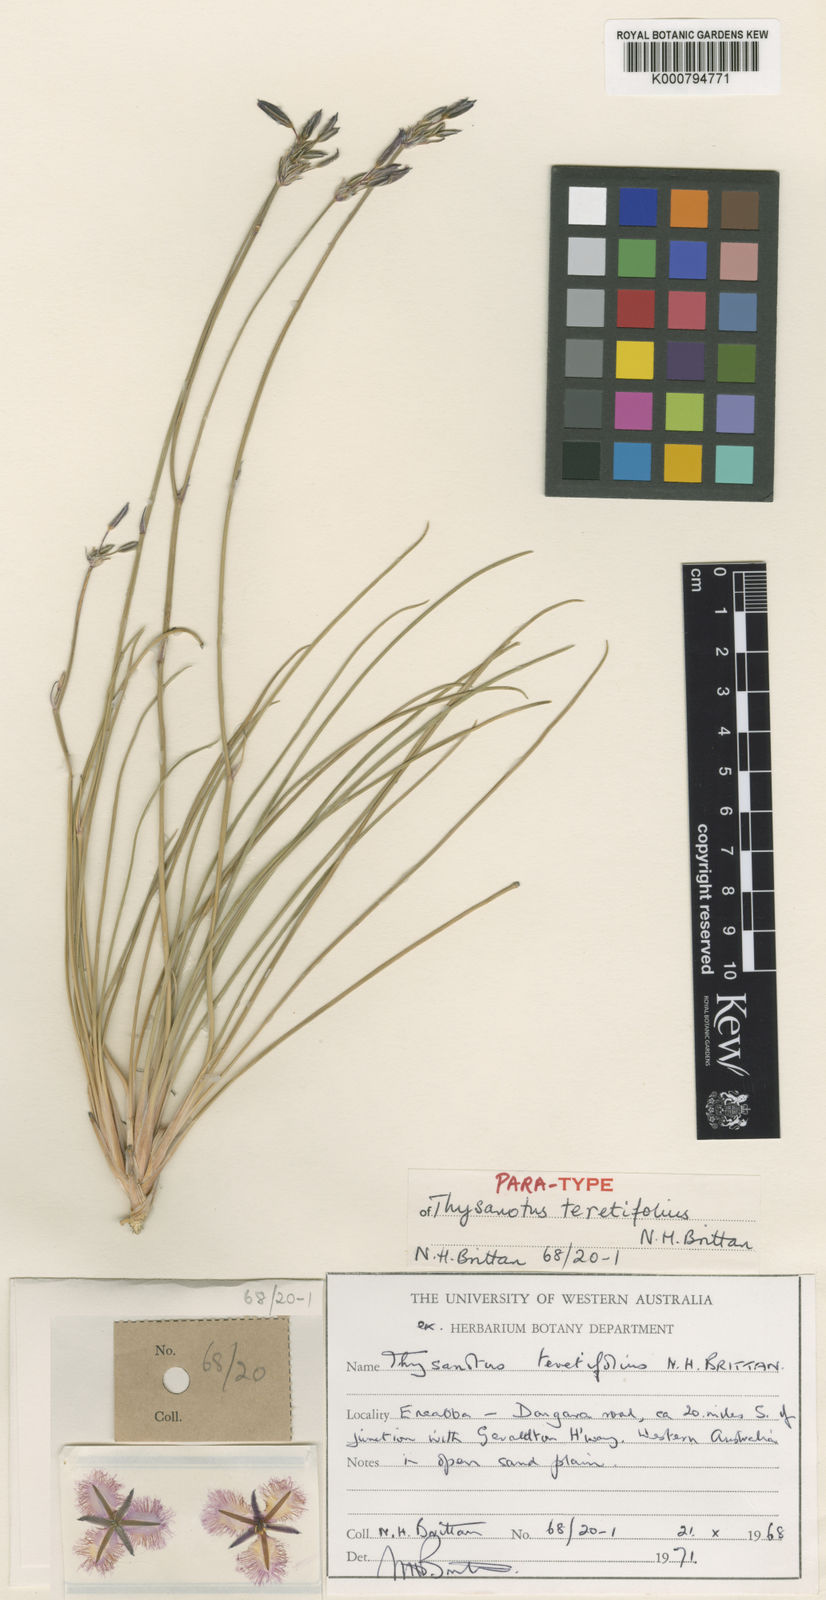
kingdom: Plantae
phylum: Tracheophyta
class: Liliopsida
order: Asparagales
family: Asparagaceae
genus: Thysanotus
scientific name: Thysanotus teretifolius
